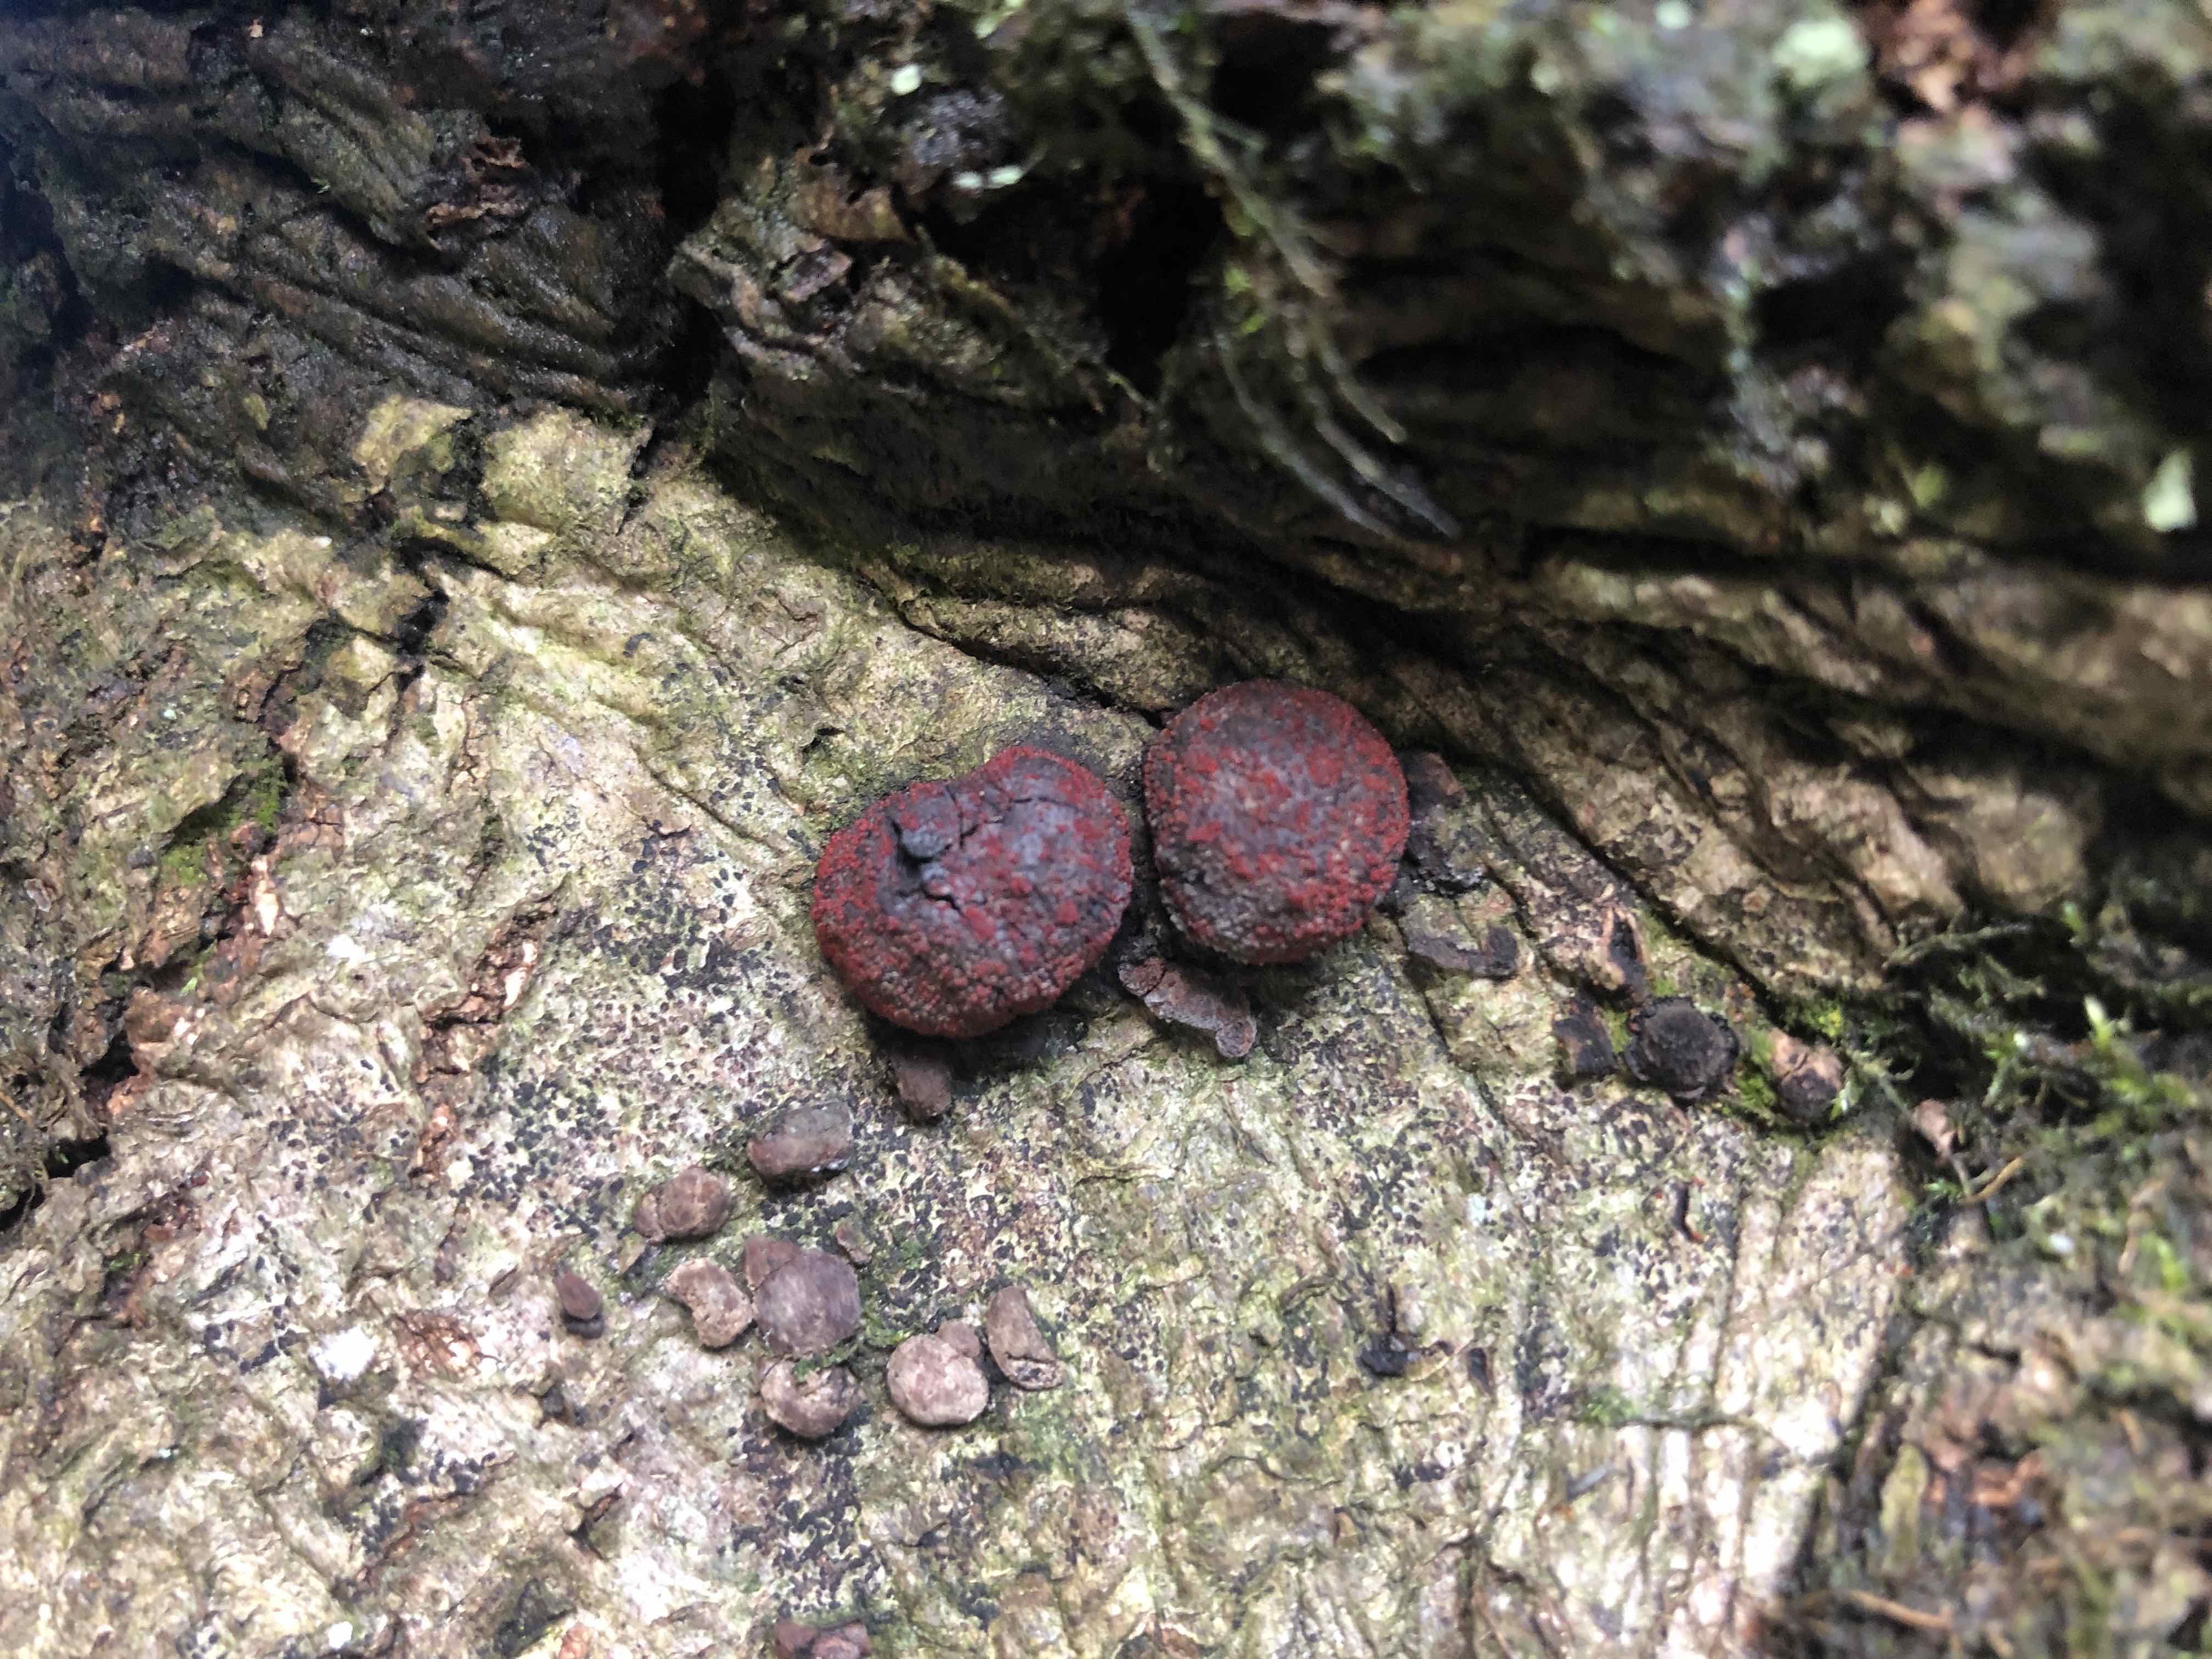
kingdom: Fungi
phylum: Ascomycota
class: Sordariomycetes
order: Hypocreales
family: Nectriaceae
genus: Cosmospora
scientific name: Cosmospora arxii
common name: kuljordbær-cinnobersvamp
